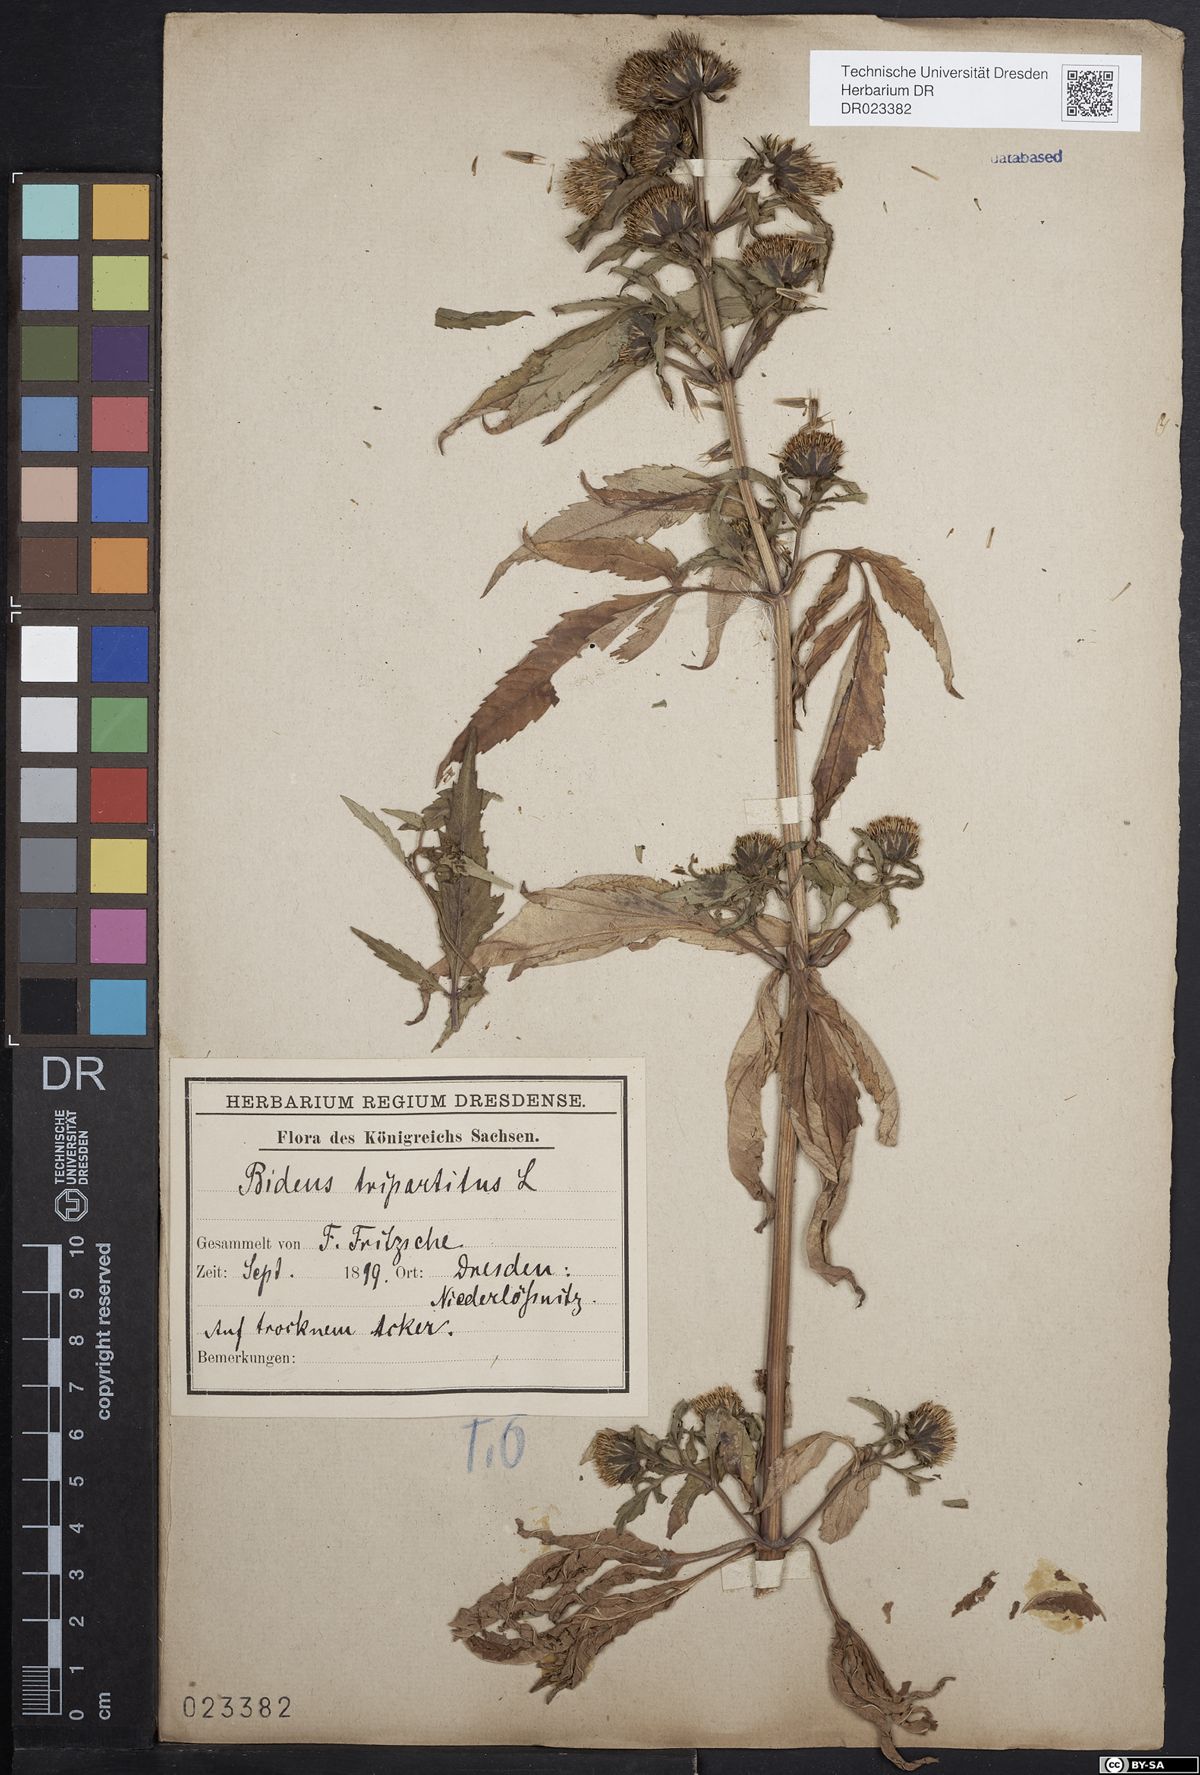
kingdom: Plantae
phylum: Tracheophyta
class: Magnoliopsida
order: Asterales
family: Asteraceae
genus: Bidens
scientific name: Bidens tripartita
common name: Trifid bur-marigold
